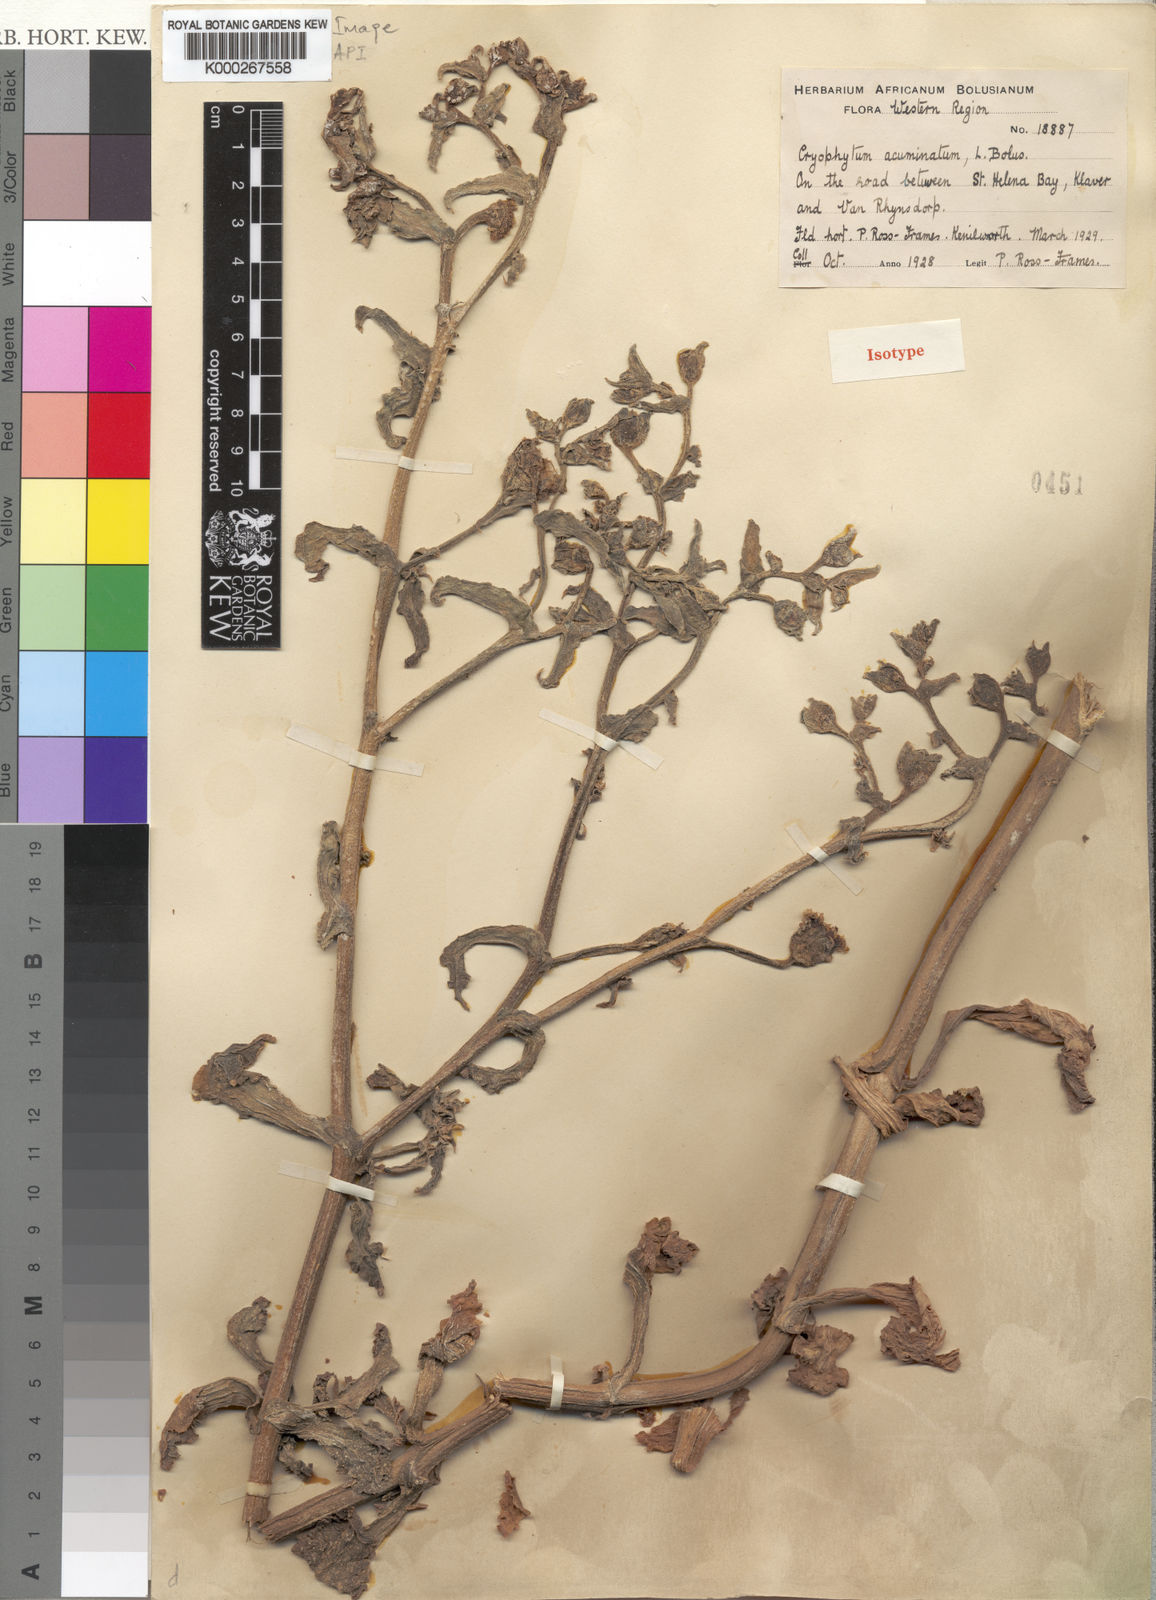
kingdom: Plantae
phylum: Tracheophyta
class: Magnoliopsida
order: Caryophyllales
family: Aizoaceae
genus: Mesembryanthemum
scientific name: Mesembryanthemum guerichianum
